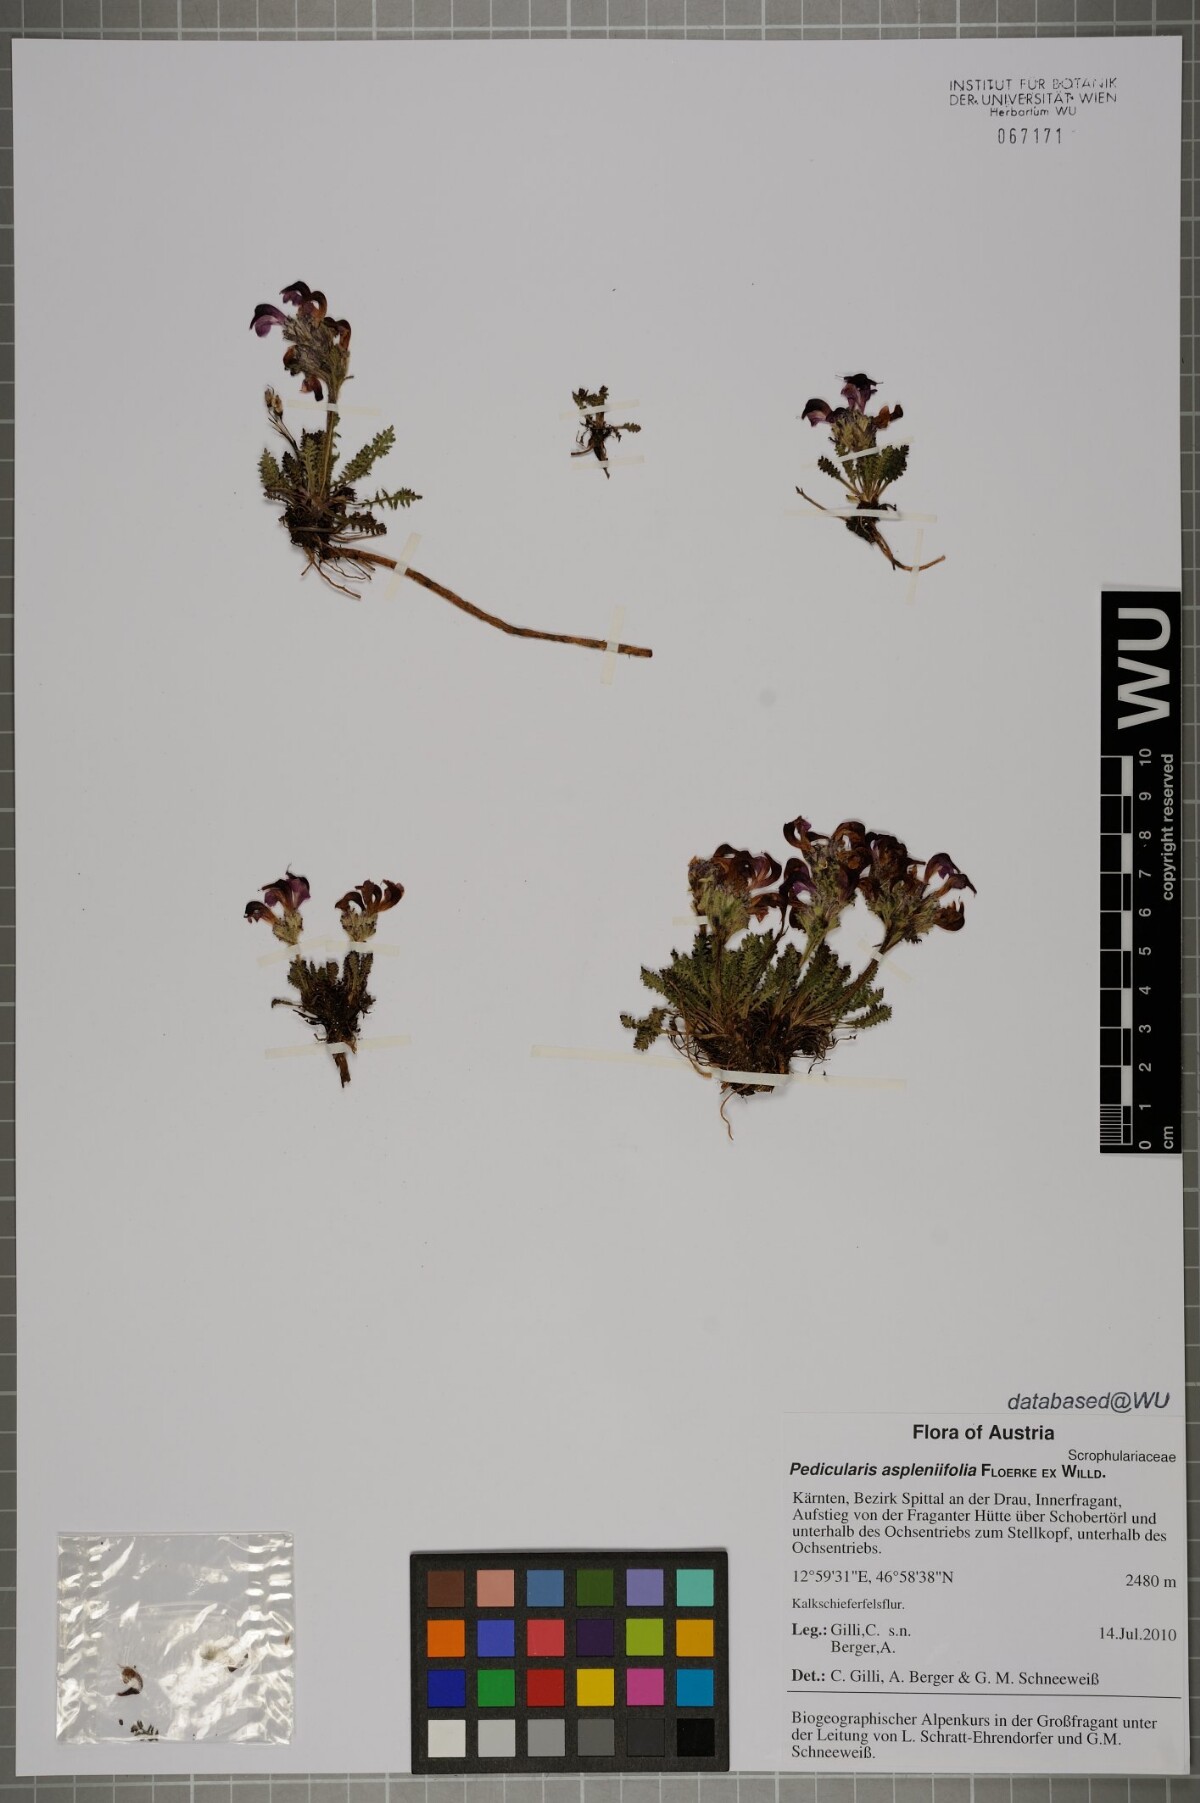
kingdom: Plantae
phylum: Tracheophyta
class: Magnoliopsida
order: Lamiales
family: Orobanchaceae
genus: Pedicularis
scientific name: Pedicularis asplenifolia
